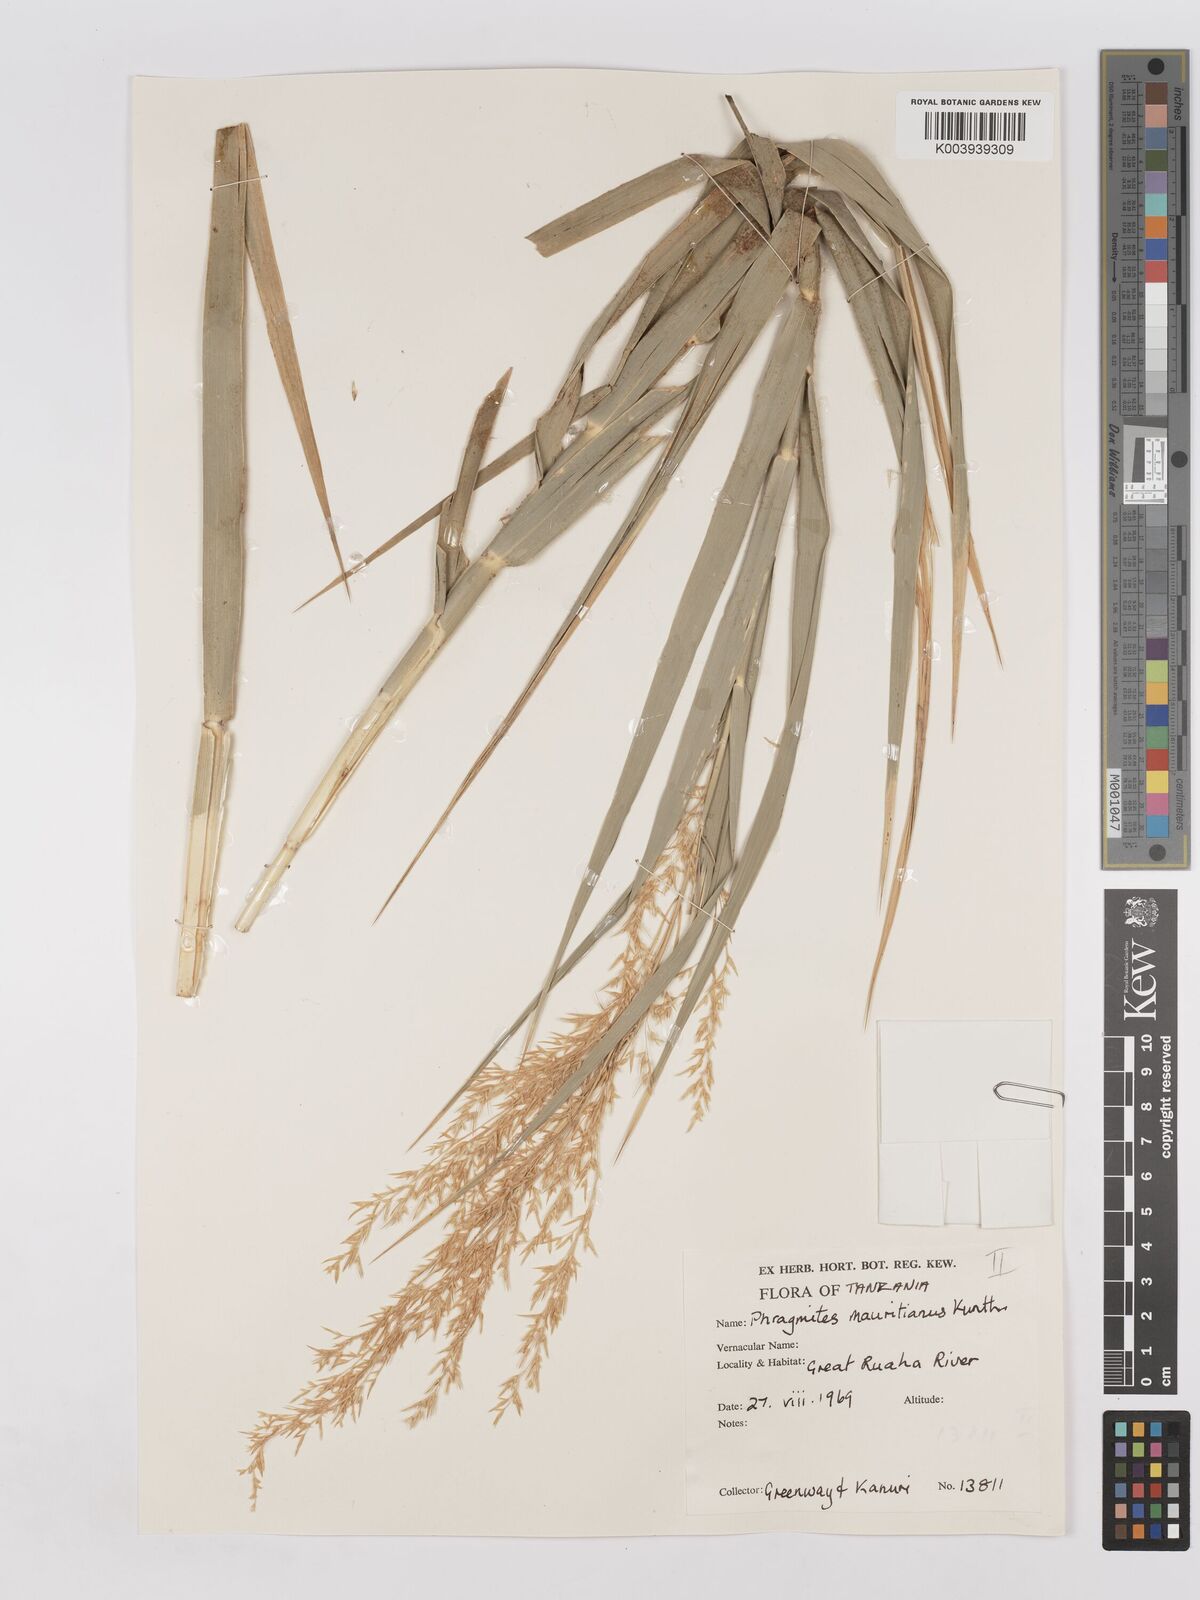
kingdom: Plantae
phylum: Tracheophyta
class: Liliopsida
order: Poales
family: Poaceae
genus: Phragmites
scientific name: Phragmites mauritianus
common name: Reed grass
